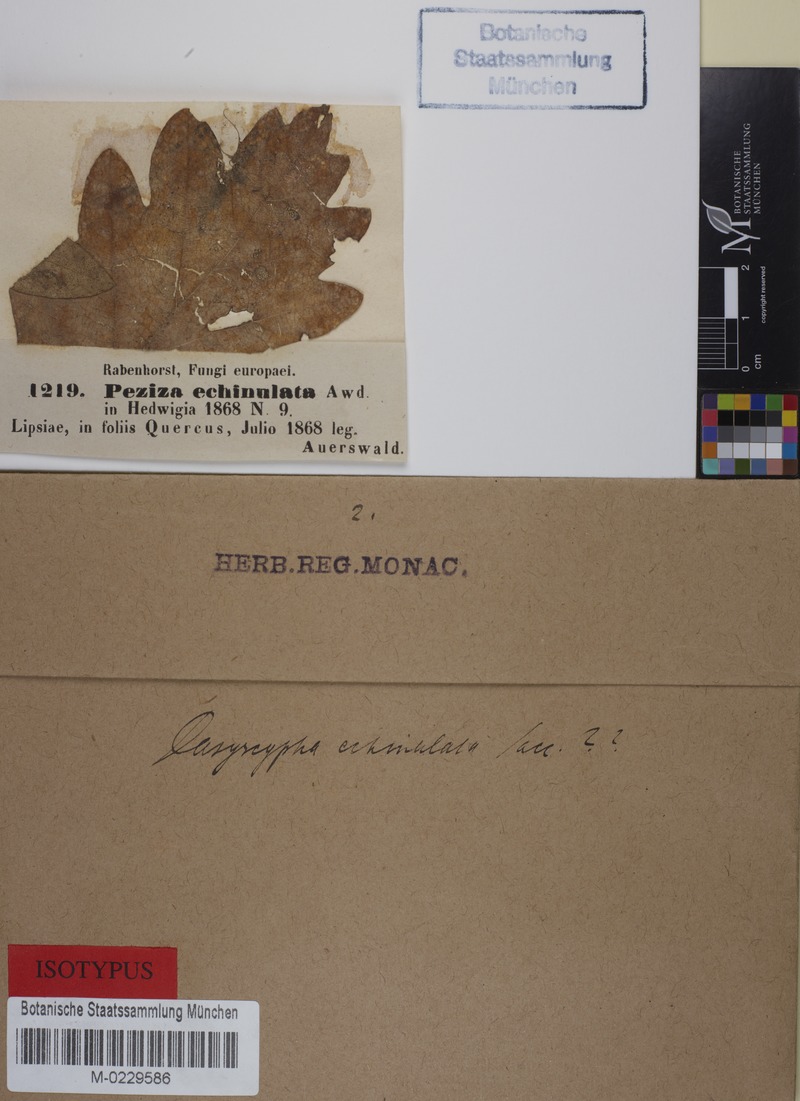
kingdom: Fungi
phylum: Ascomycota
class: Leotiomycetes
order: Helotiales
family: Lachnaceae
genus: Lachnum
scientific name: Lachnum rhytismatis
